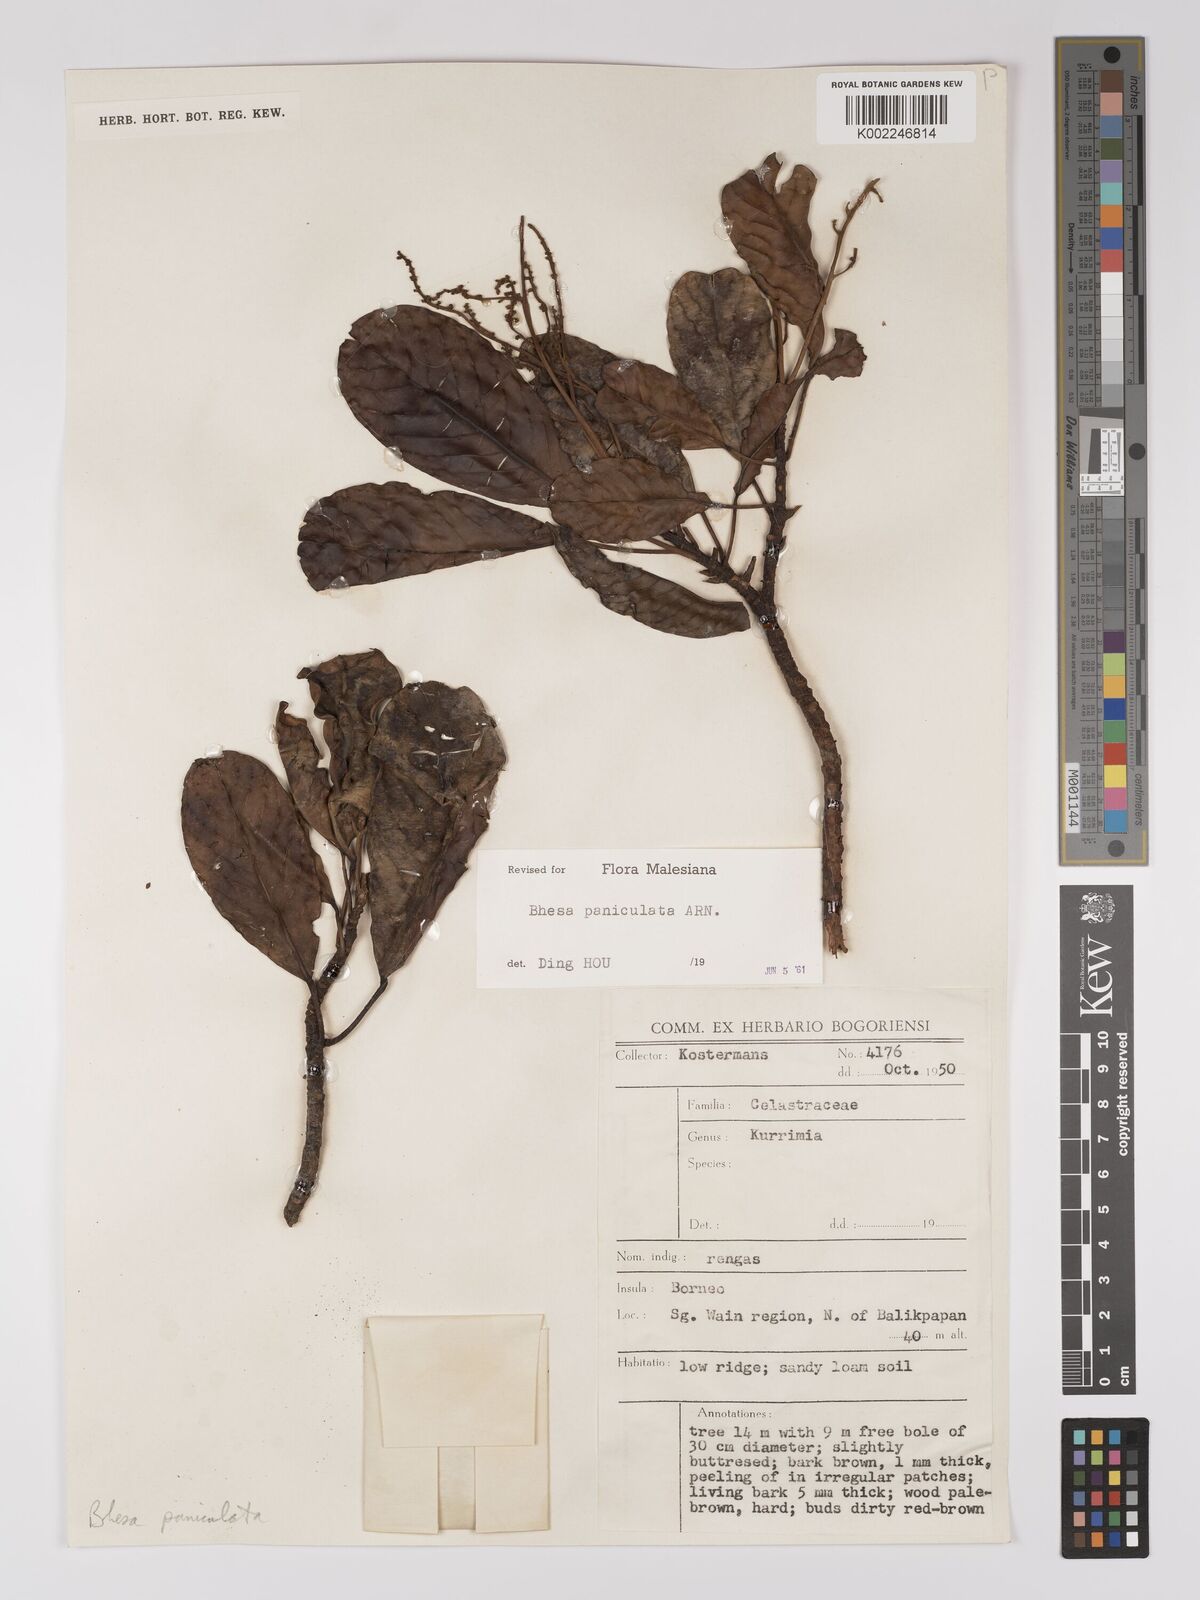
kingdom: Plantae
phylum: Tracheophyta
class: Magnoliopsida
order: Malpighiales
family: Centroplacaceae
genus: Bhesa
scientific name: Bhesa paniculata
